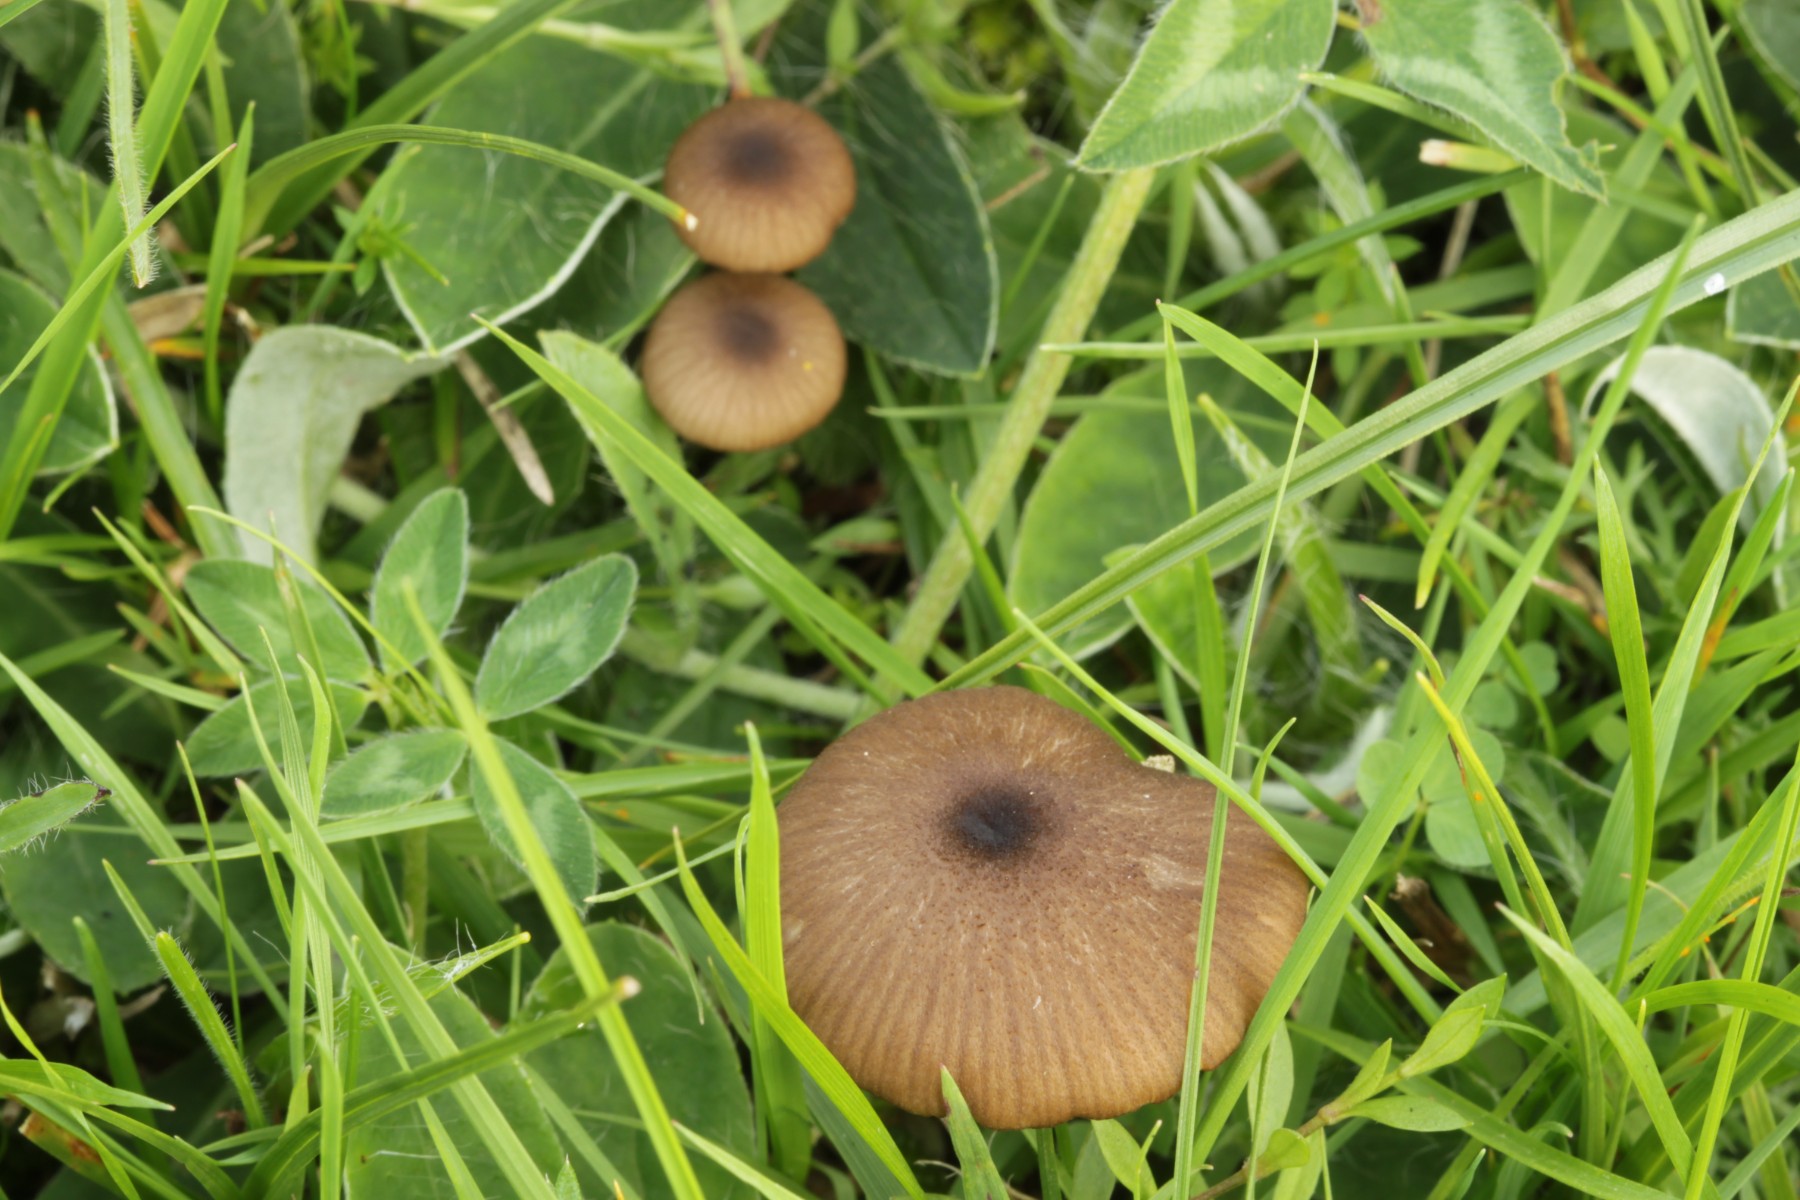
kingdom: Fungi
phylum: Basidiomycota
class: Agaricomycetes
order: Agaricales
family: Entolomataceae
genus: Entoloma
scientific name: Entoloma asprellum
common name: ru rødblad
